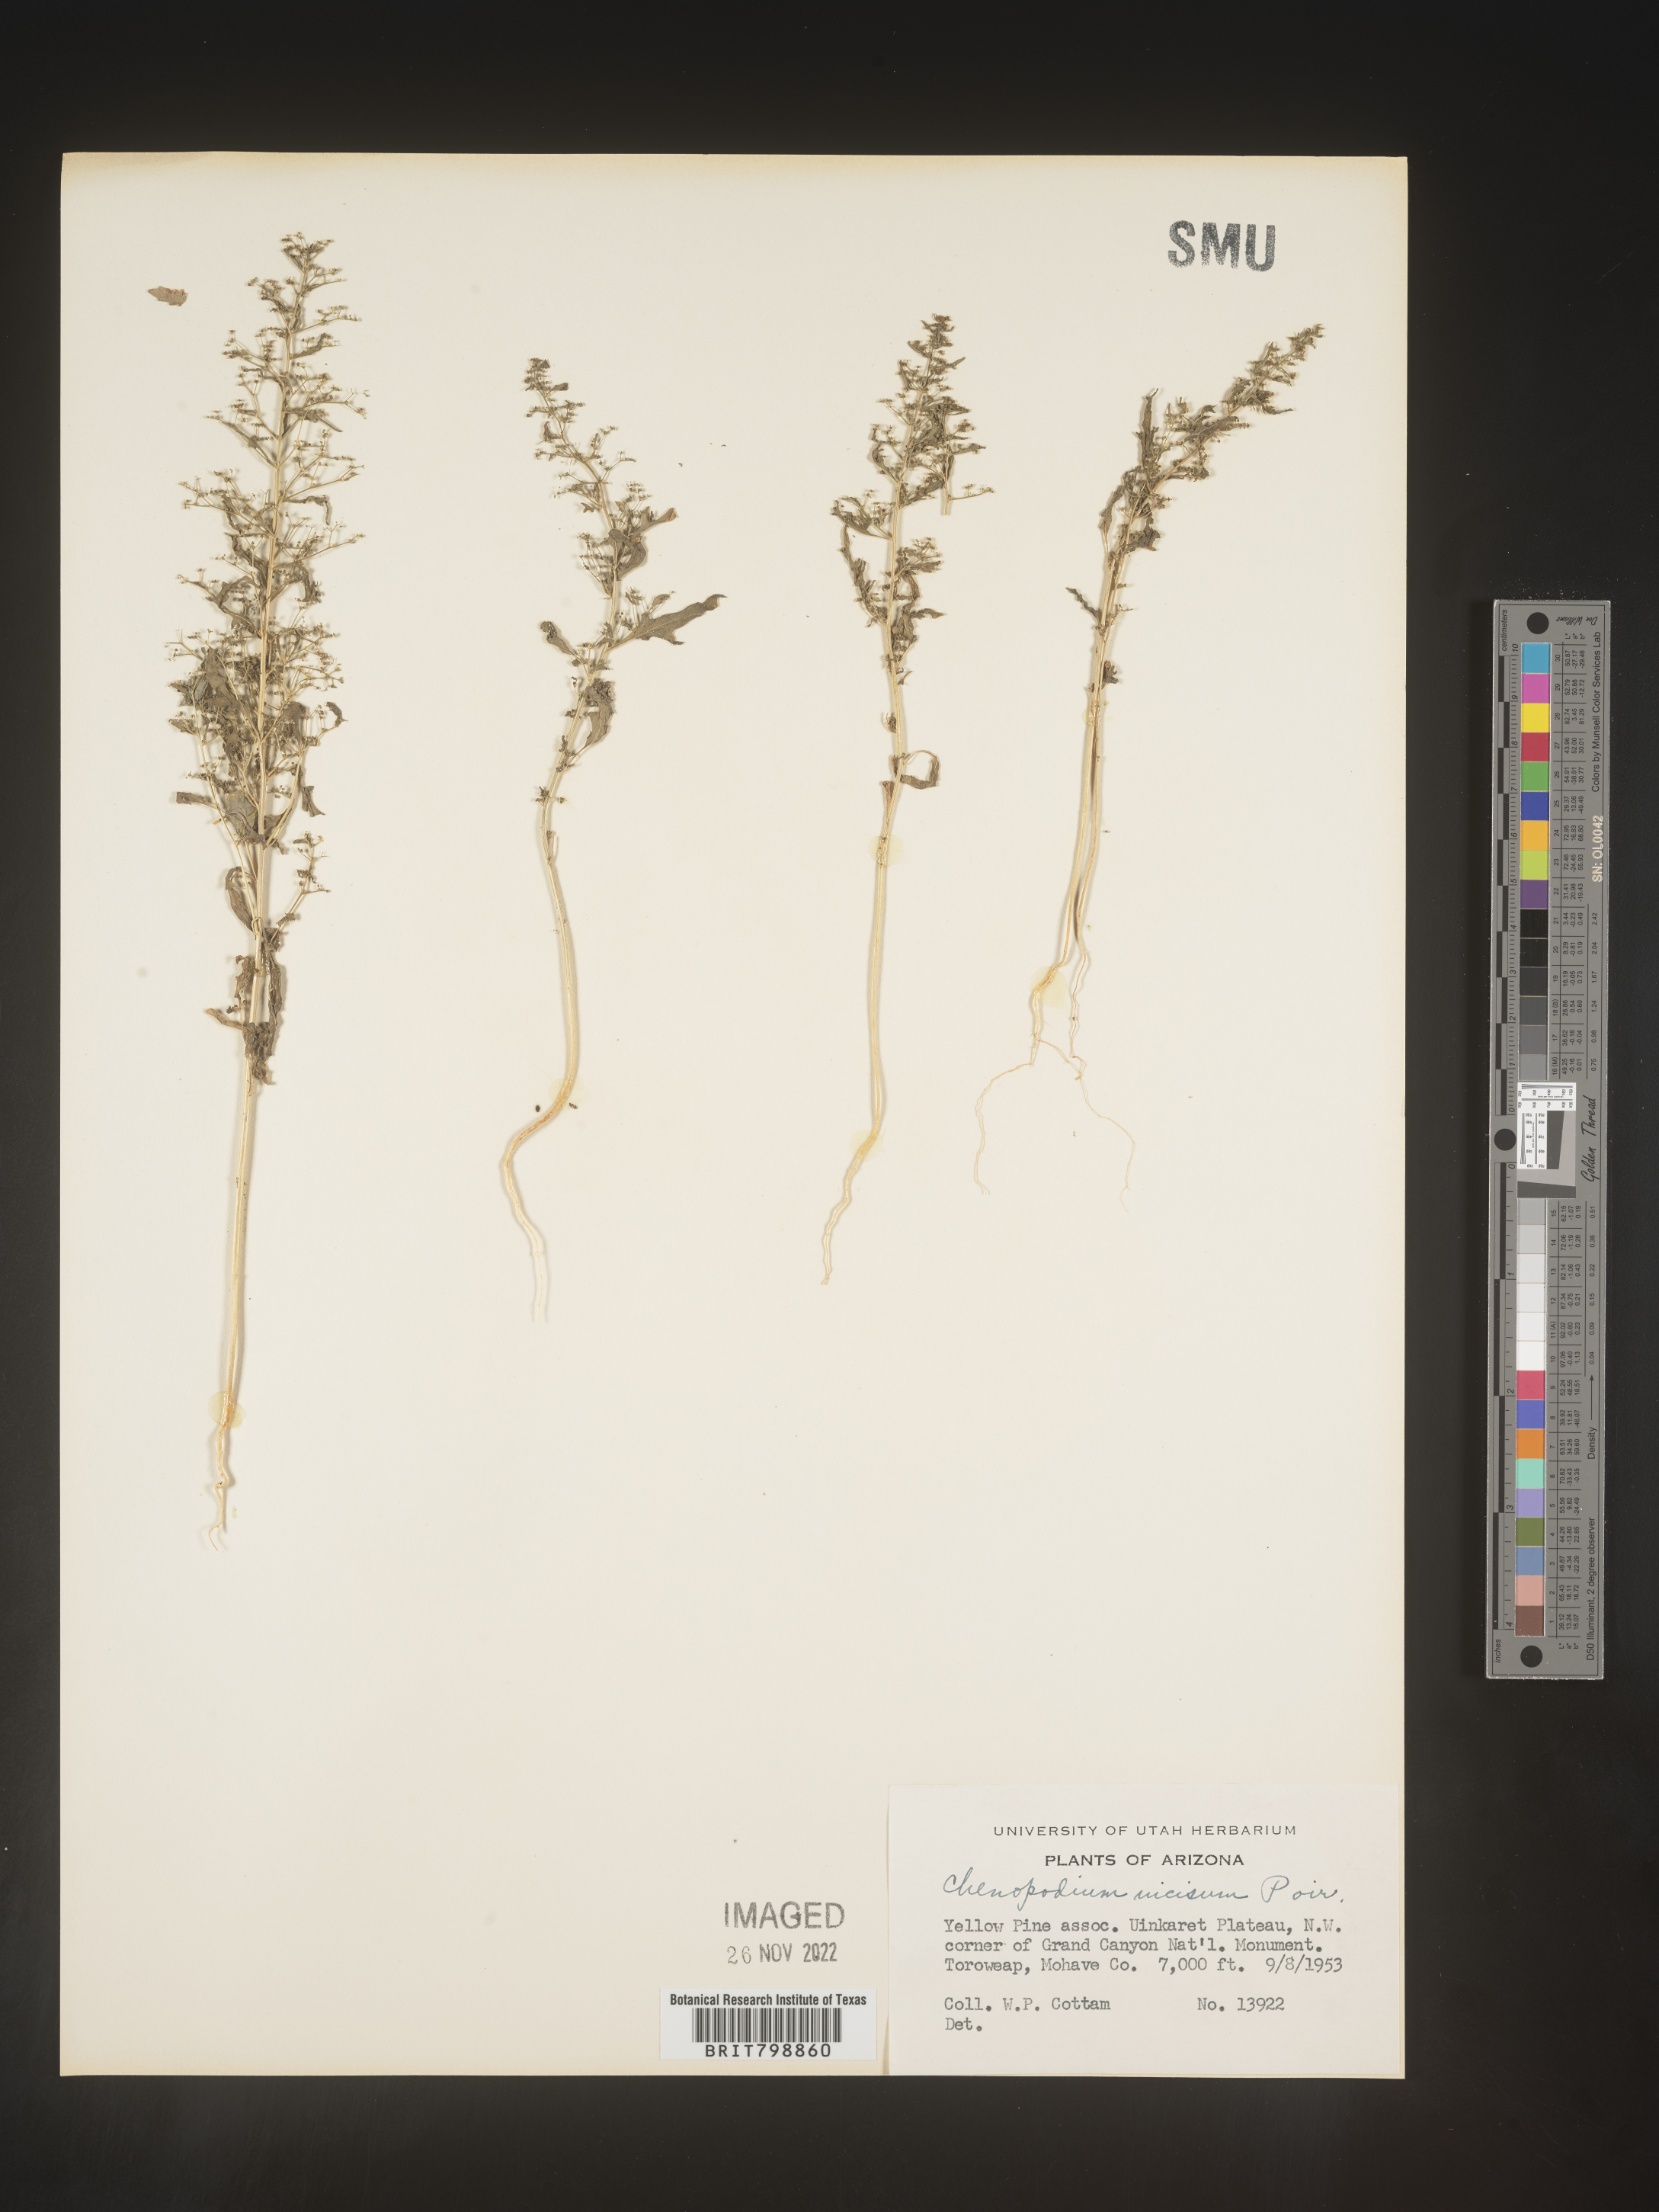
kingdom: Plantae
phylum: Tracheophyta
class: Magnoliopsida
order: Caryophyllales
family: Amaranthaceae
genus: Dysphania
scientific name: Dysphania graveolens
